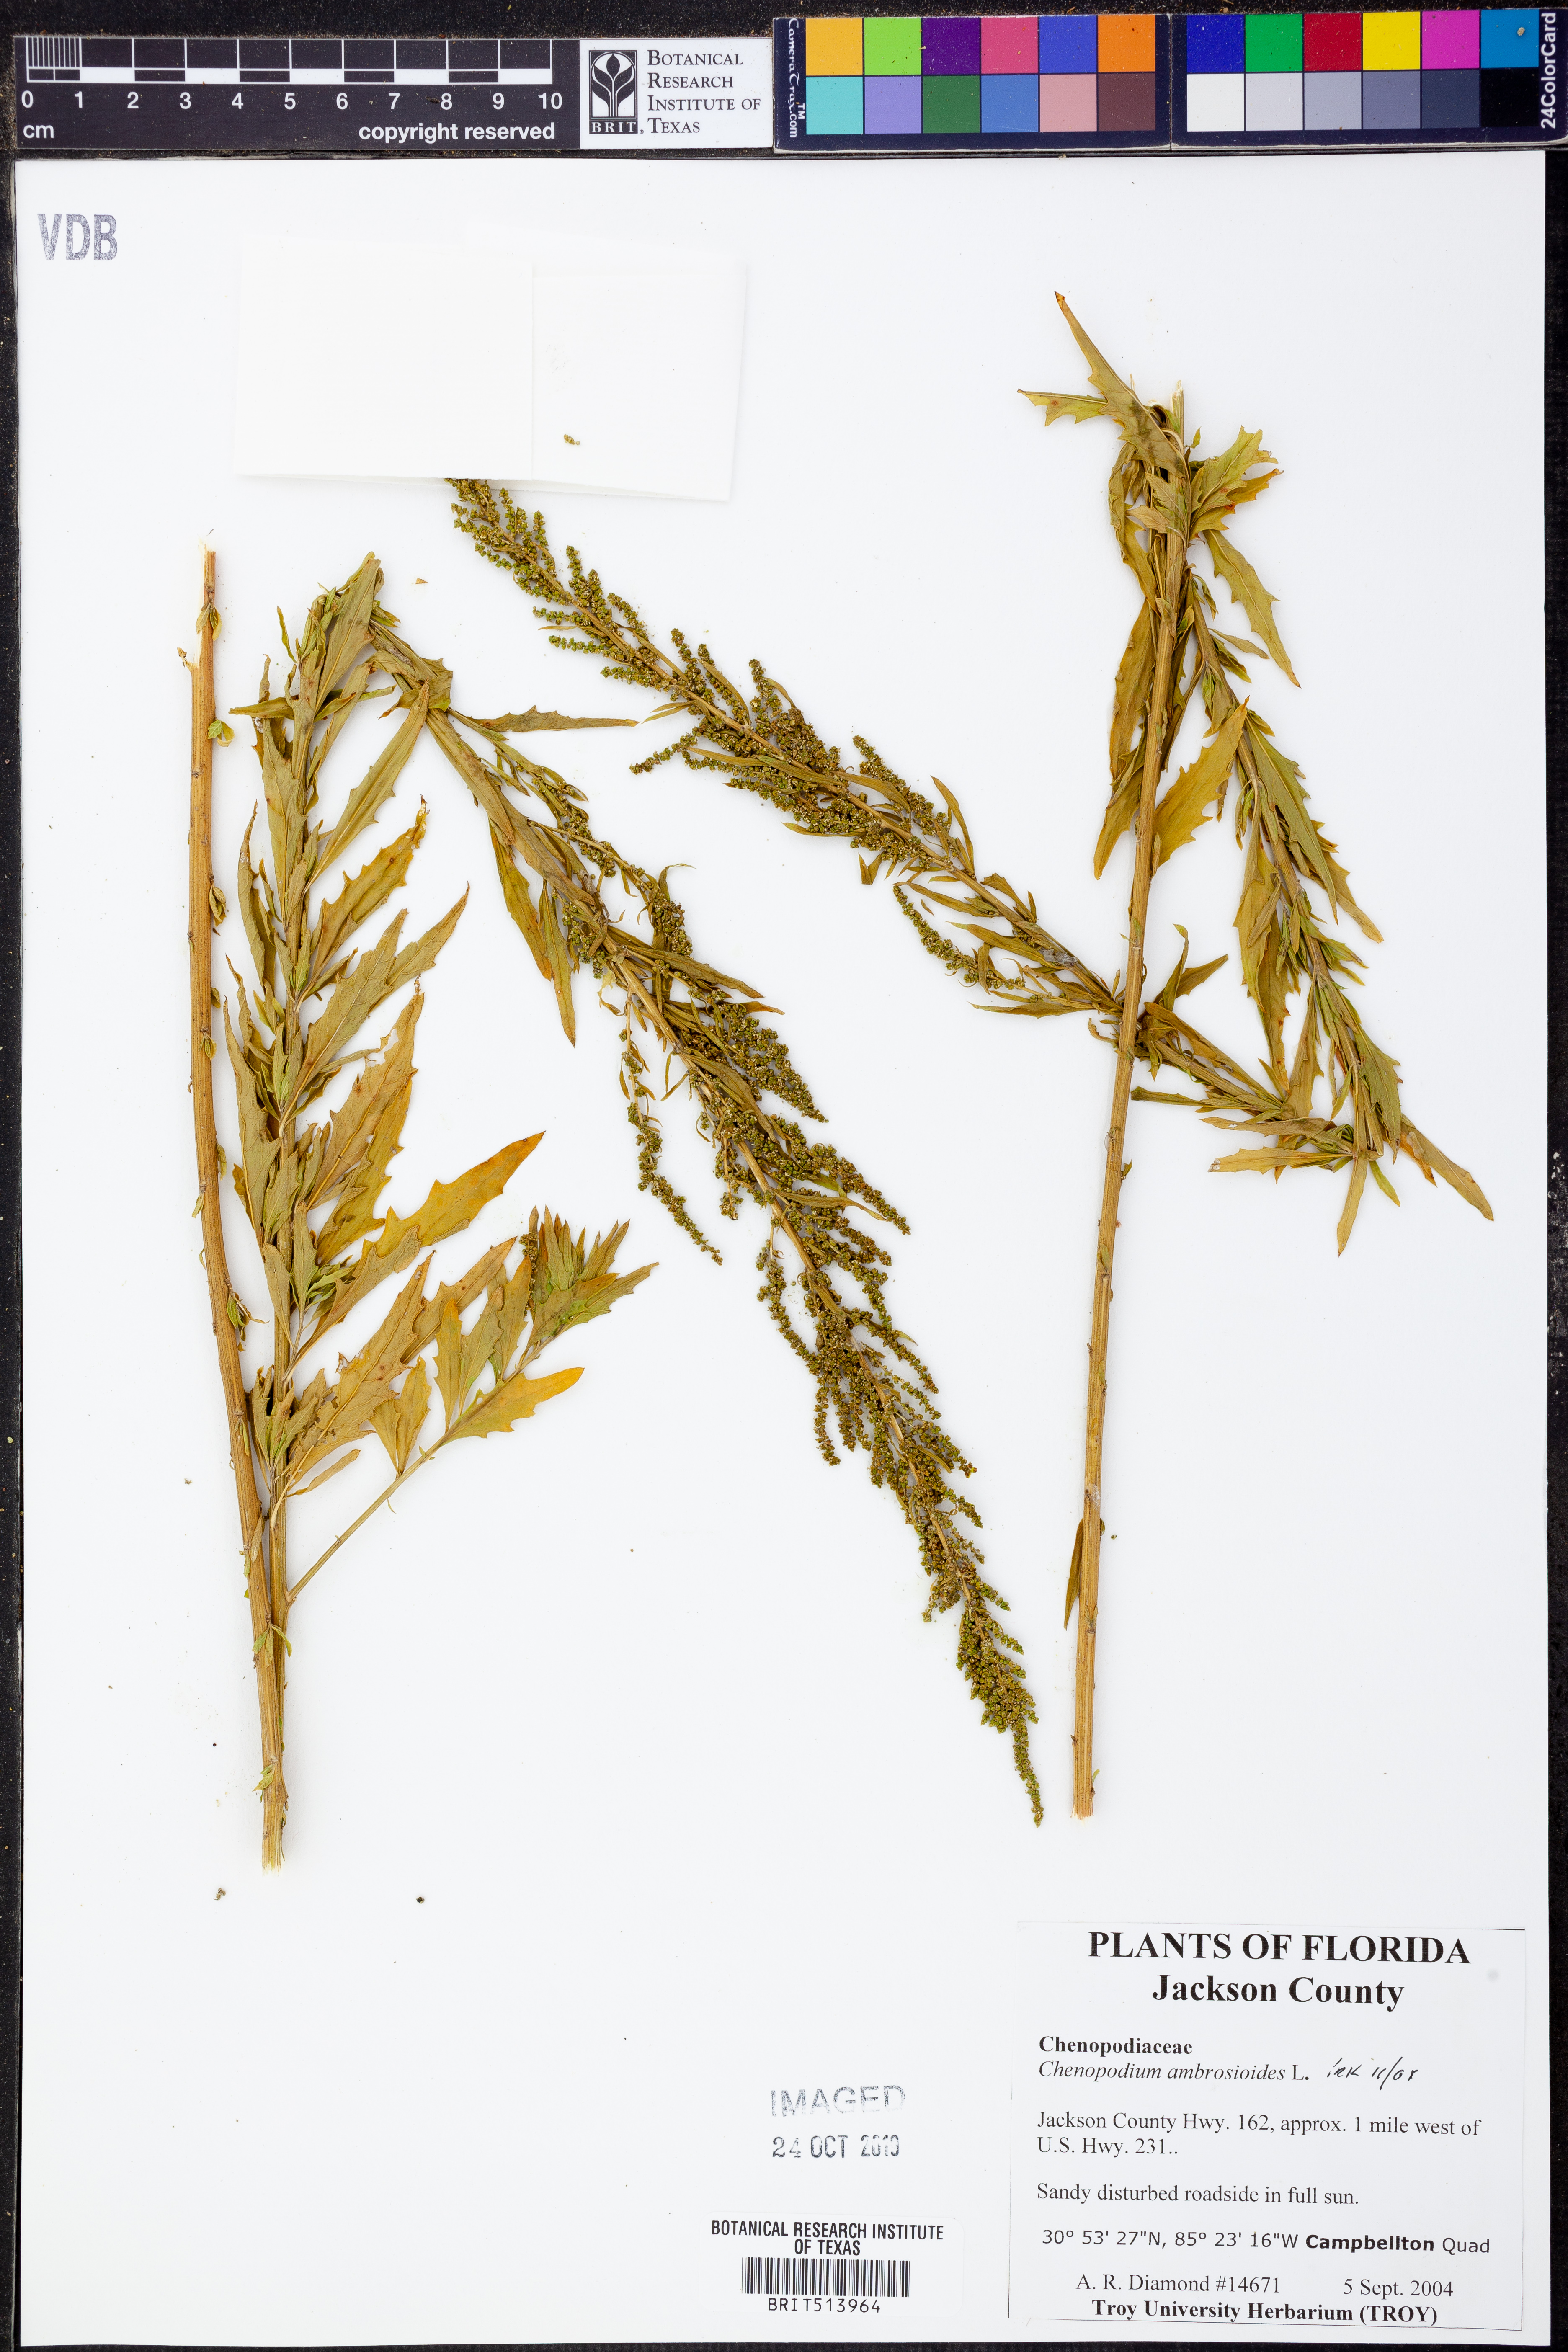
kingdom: Plantae
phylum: Tracheophyta
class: Magnoliopsida
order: Caryophyllales
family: Amaranthaceae
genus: Dysphania
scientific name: Dysphania ambrosioides
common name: Wormseed
